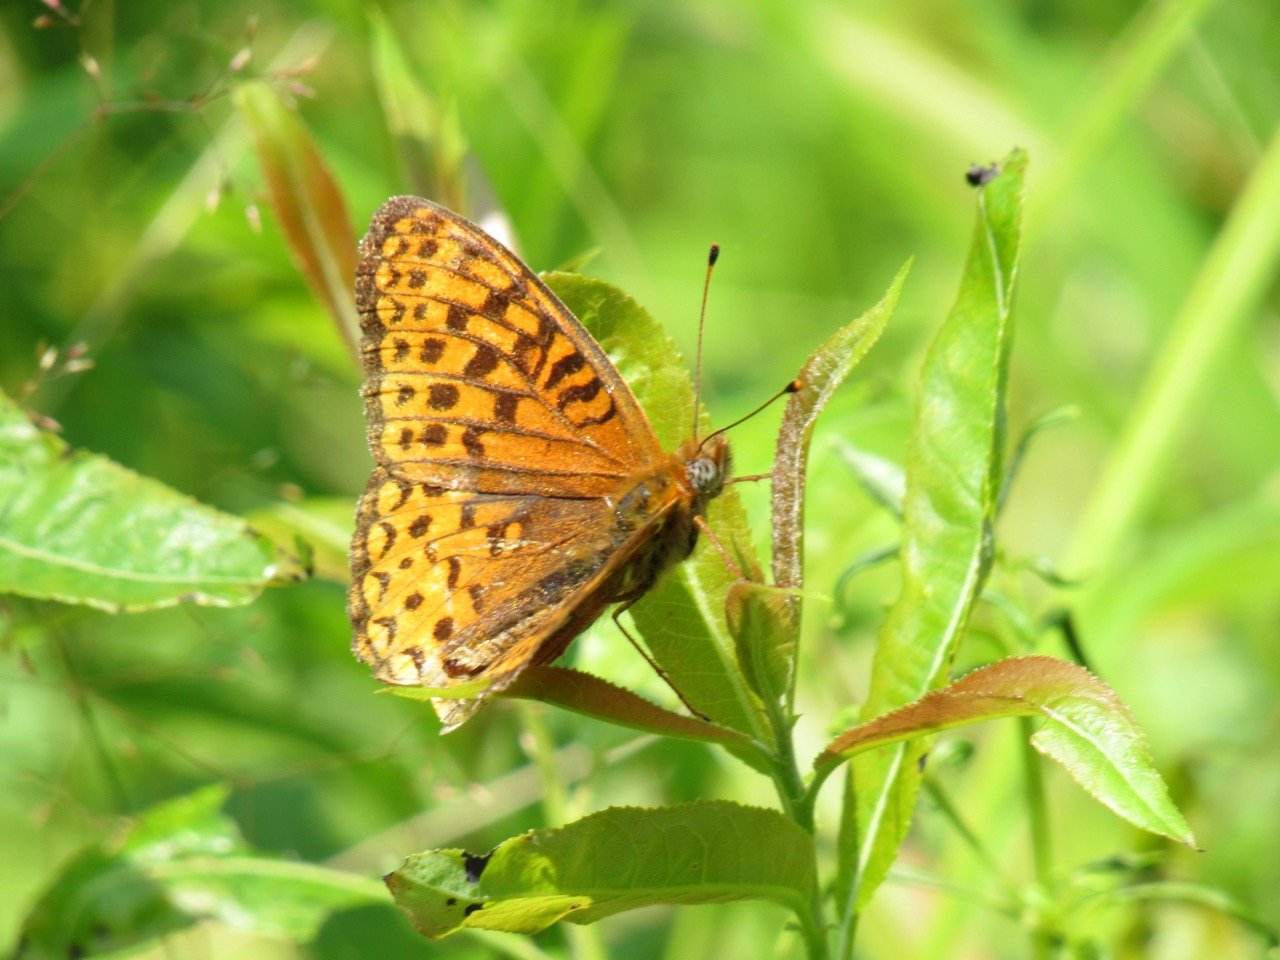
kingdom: Animalia
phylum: Arthropoda
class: Insecta
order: Lepidoptera
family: Nymphalidae
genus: Speyeria
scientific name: Speyeria atlantis
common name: Atlantis Fritillary
